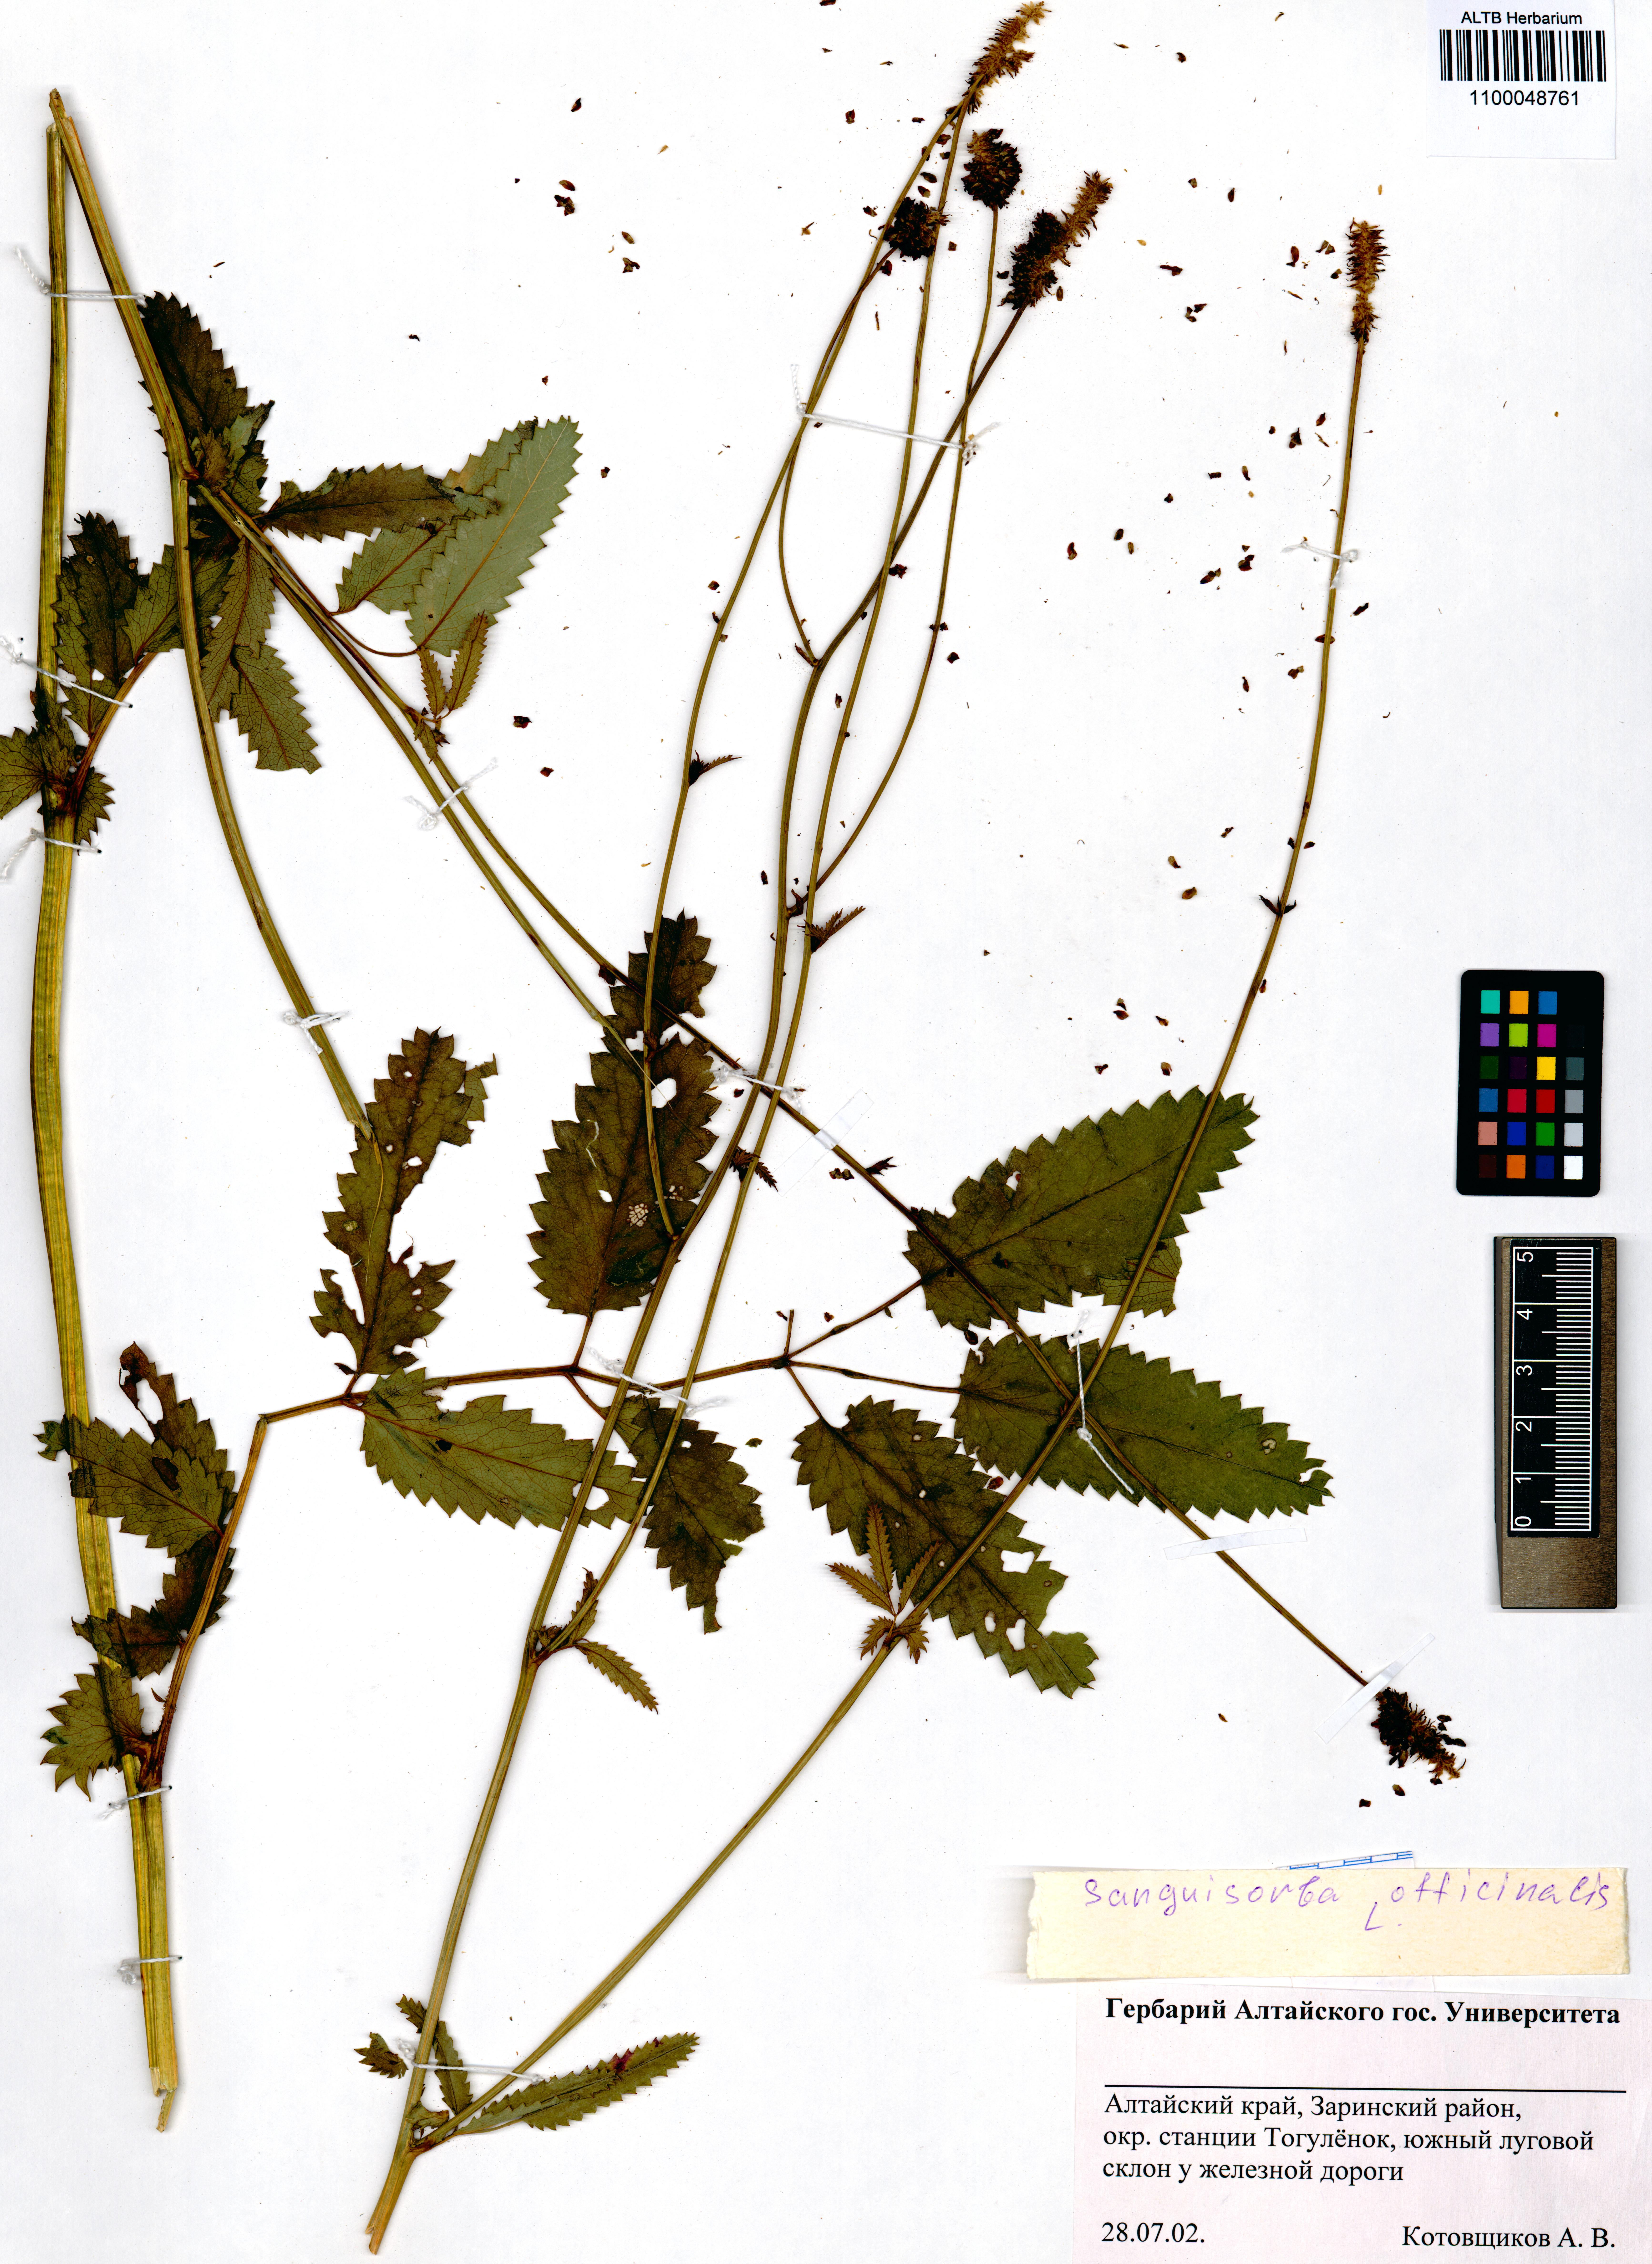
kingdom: Plantae
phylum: Tracheophyta
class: Magnoliopsida
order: Rosales
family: Rosaceae
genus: Sanguisorba
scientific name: Sanguisorba officinalis
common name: Great burnet
